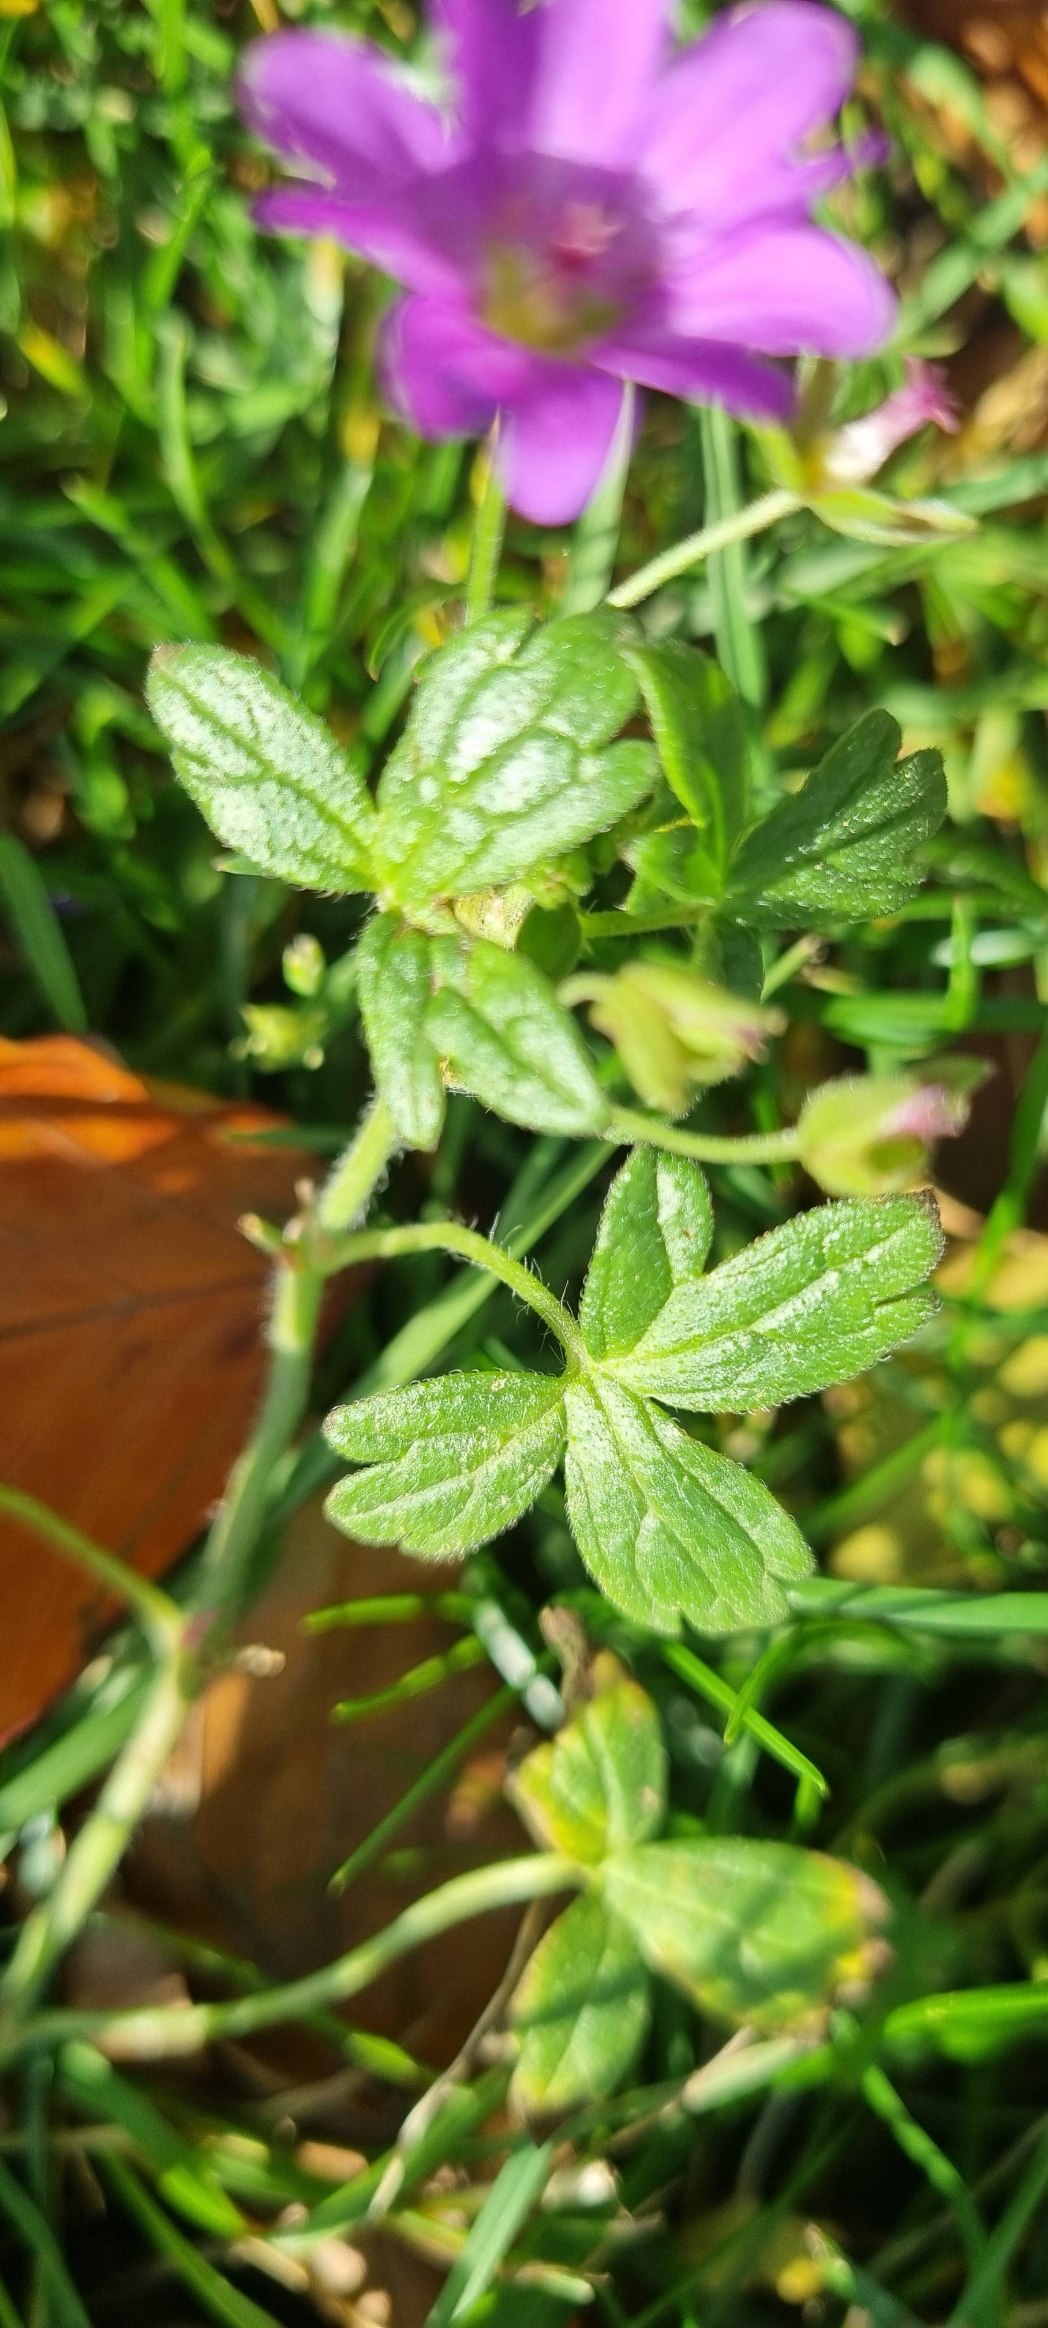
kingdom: Plantae
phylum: Tracheophyta
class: Magnoliopsida
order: Geraniales
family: Geraniaceae
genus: Geranium
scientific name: Geranium pyrenaicum
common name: Pyrenæisk storkenæb
